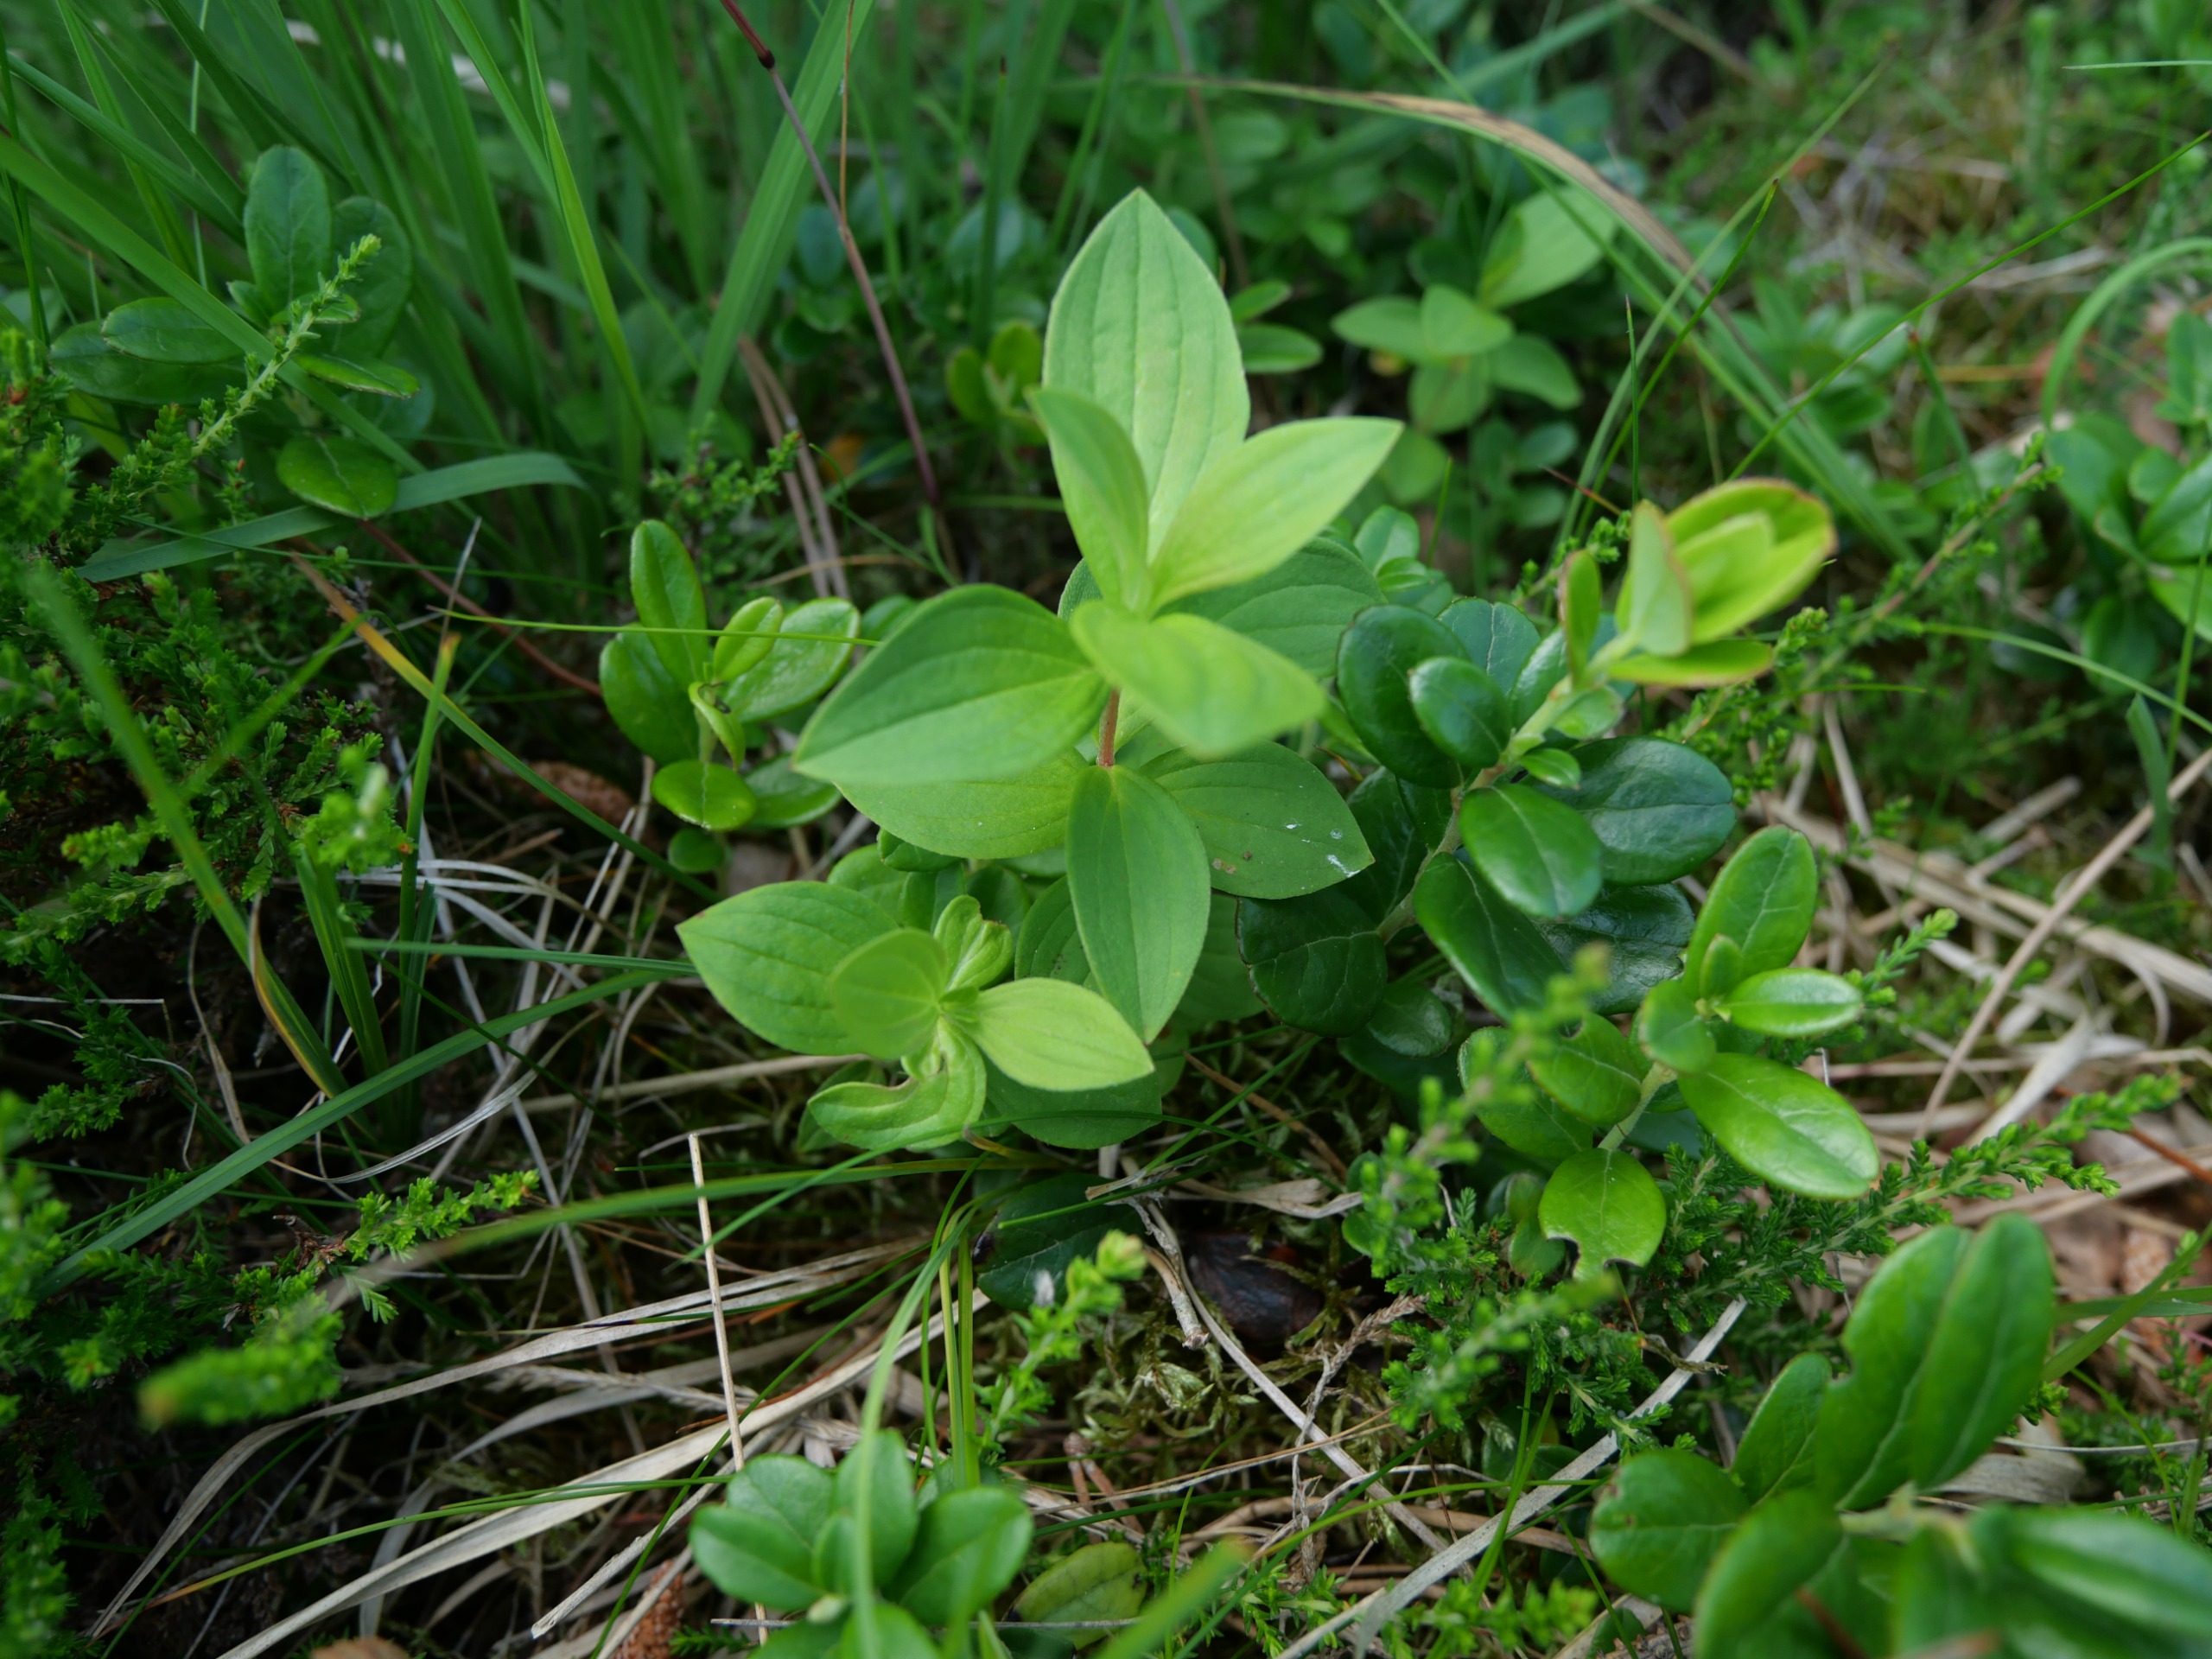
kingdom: Plantae
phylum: Tracheophyta
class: Magnoliopsida
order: Cornales
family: Cornaceae
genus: Cornus
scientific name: Cornus suecica
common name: Hønsebær
